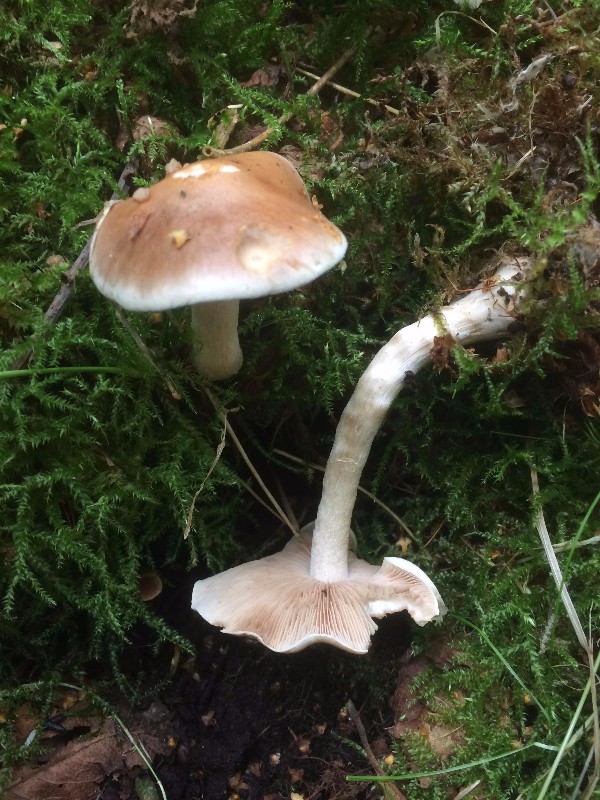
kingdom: Fungi
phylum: Basidiomycota
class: Agaricomycetes
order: Agaricales
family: Hymenogastraceae
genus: Hebeloma
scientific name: Hebeloma
